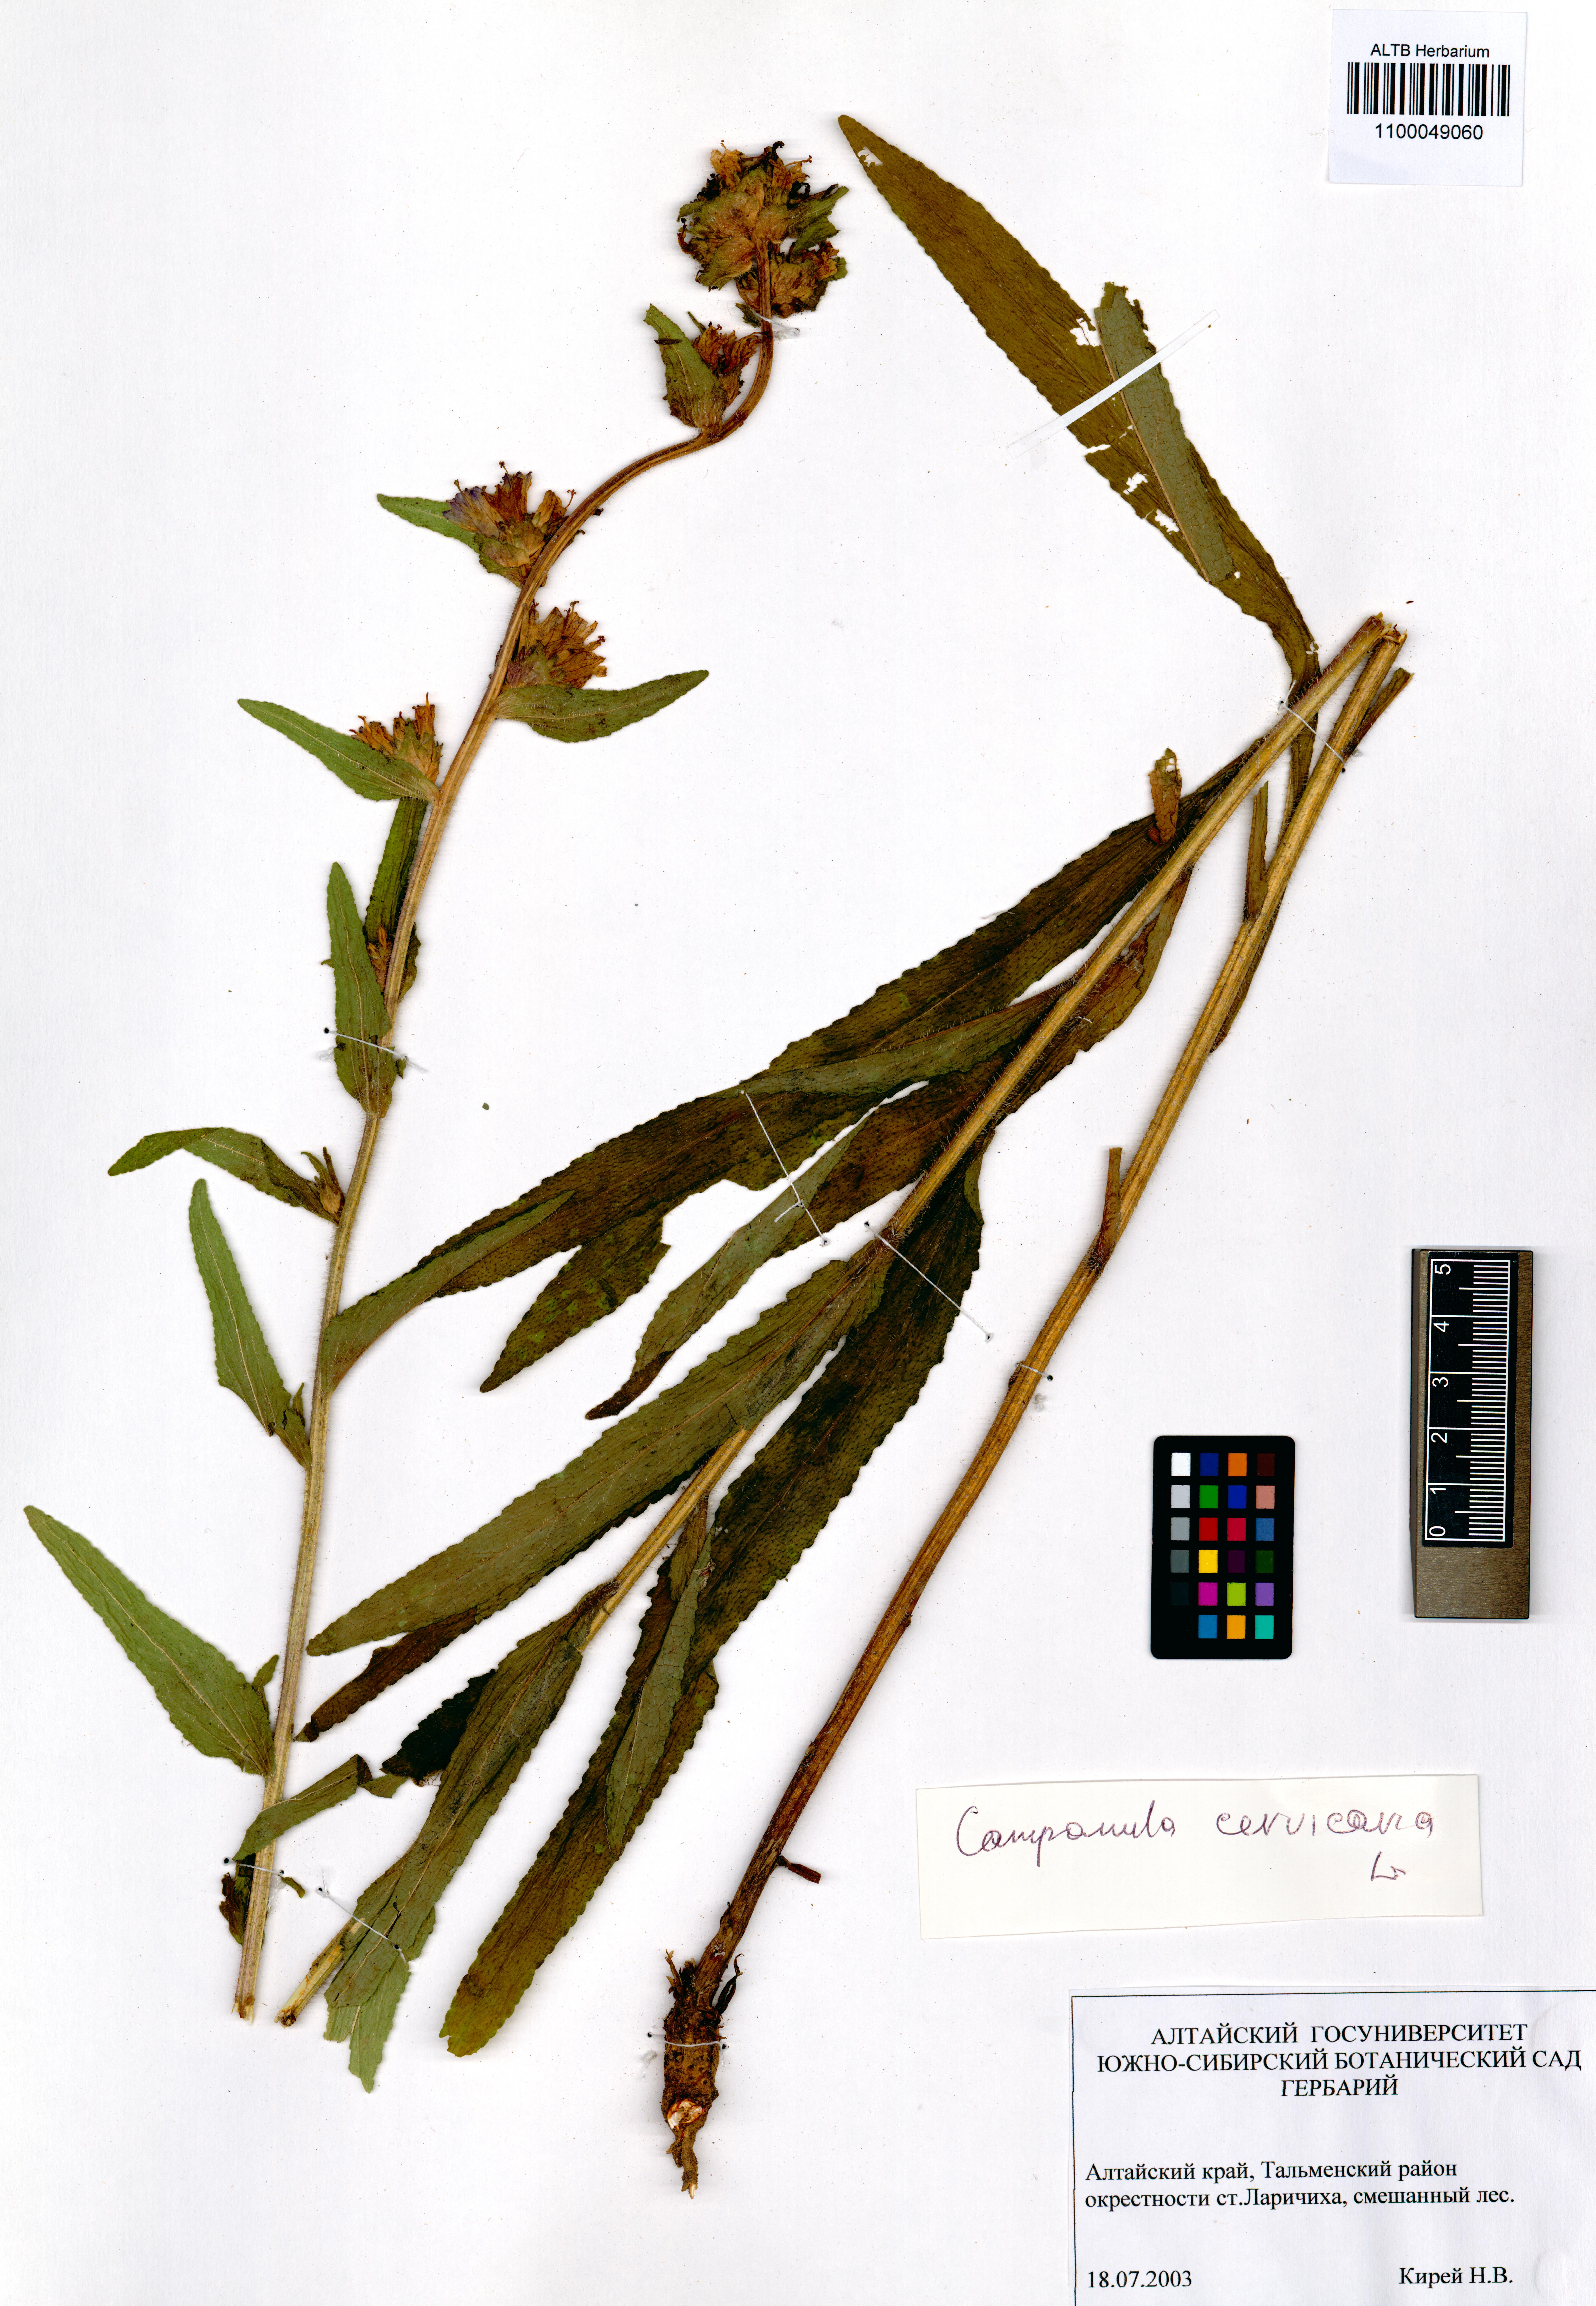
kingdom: Plantae
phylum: Tracheophyta
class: Magnoliopsida
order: Asterales
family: Campanulaceae
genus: Campanula
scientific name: Campanula cervicaria
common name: Bristly bellflower
